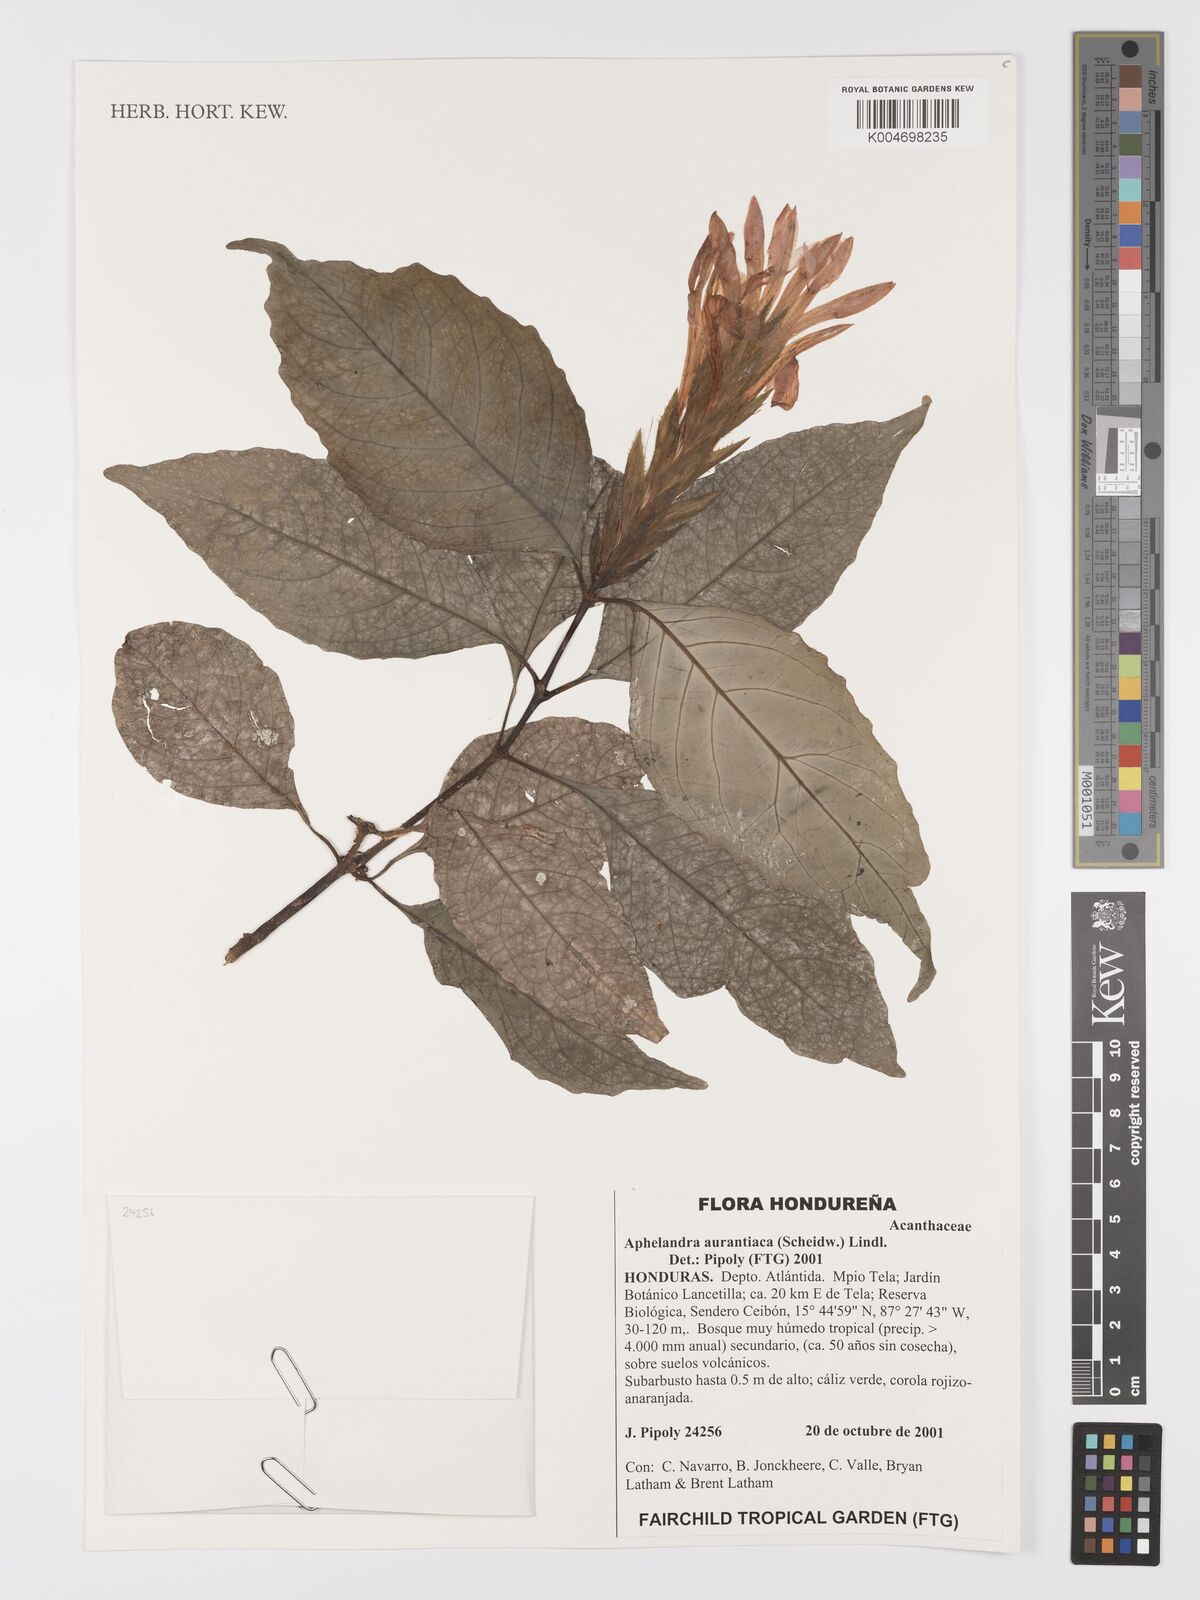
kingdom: Plantae
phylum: Tracheophyta
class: Magnoliopsida
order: Lamiales
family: Acanthaceae
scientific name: Acanthaceae
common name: Acanthaceae
